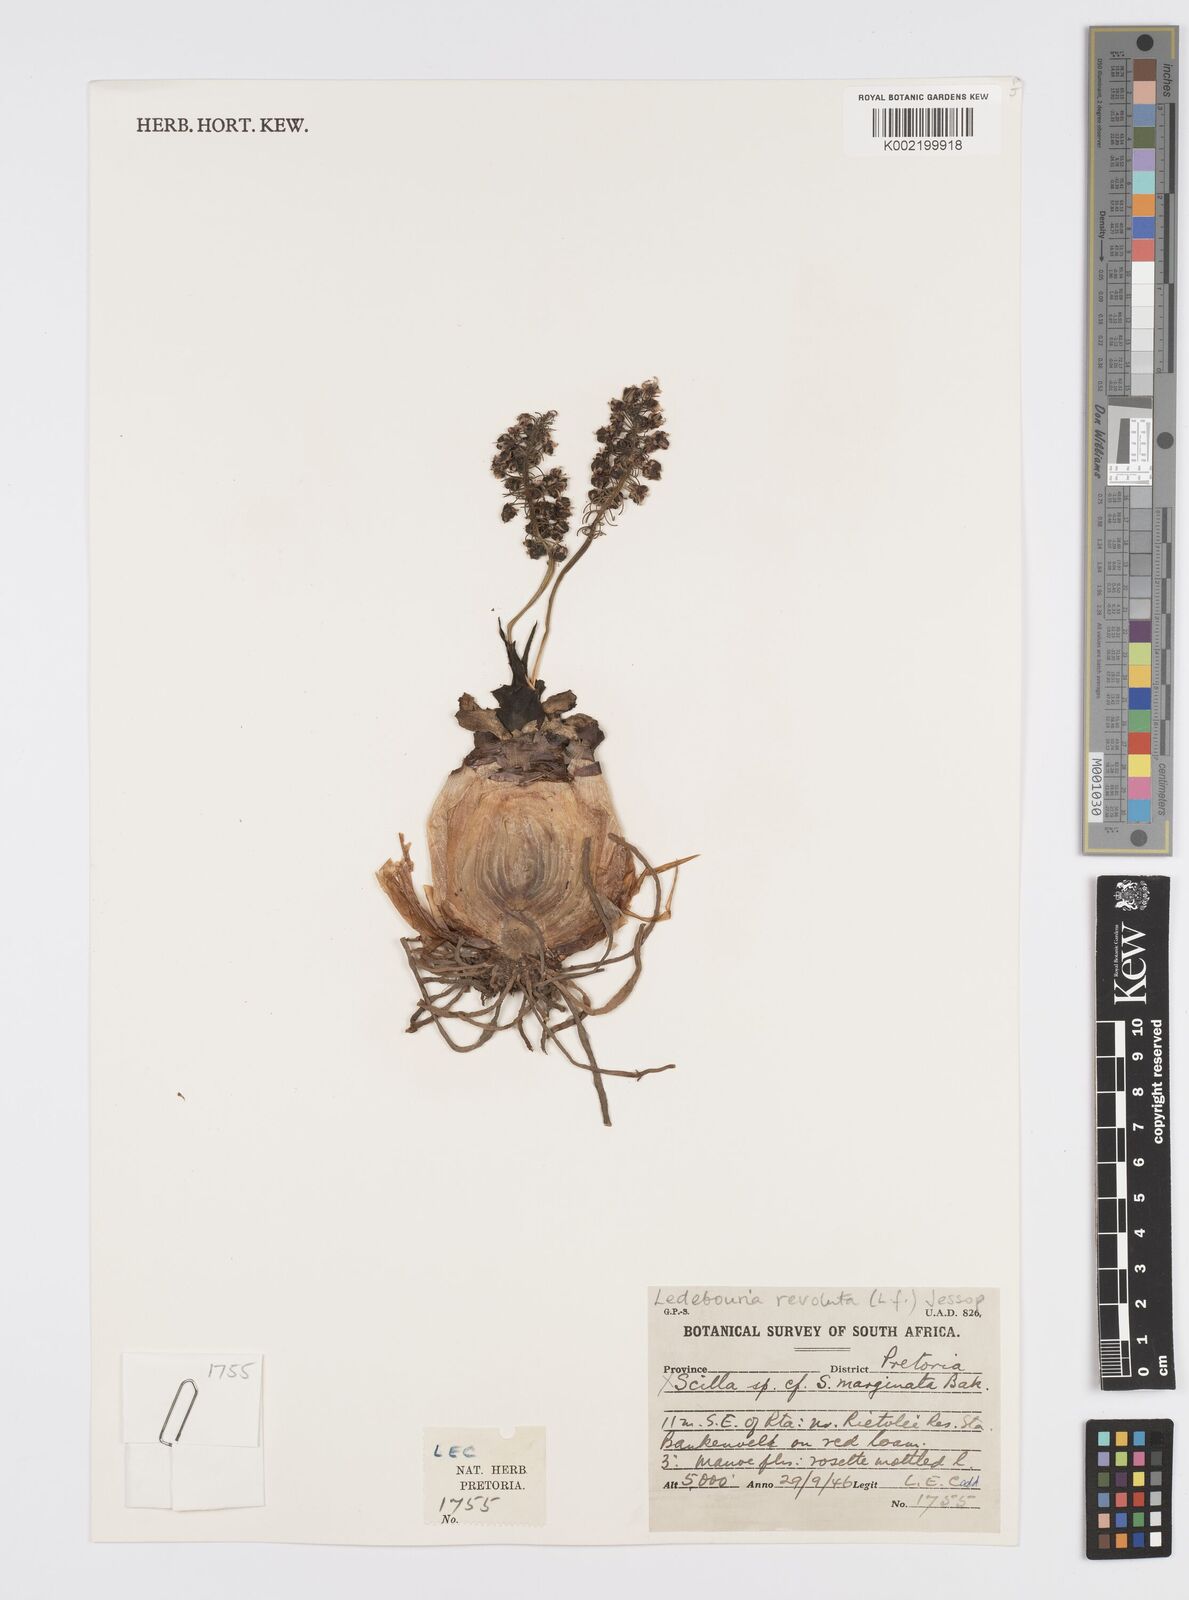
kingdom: Plantae
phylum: Tracheophyta
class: Liliopsida
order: Asparagales
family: Asparagaceae
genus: Ledebouria
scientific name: Ledebouria revoluta
